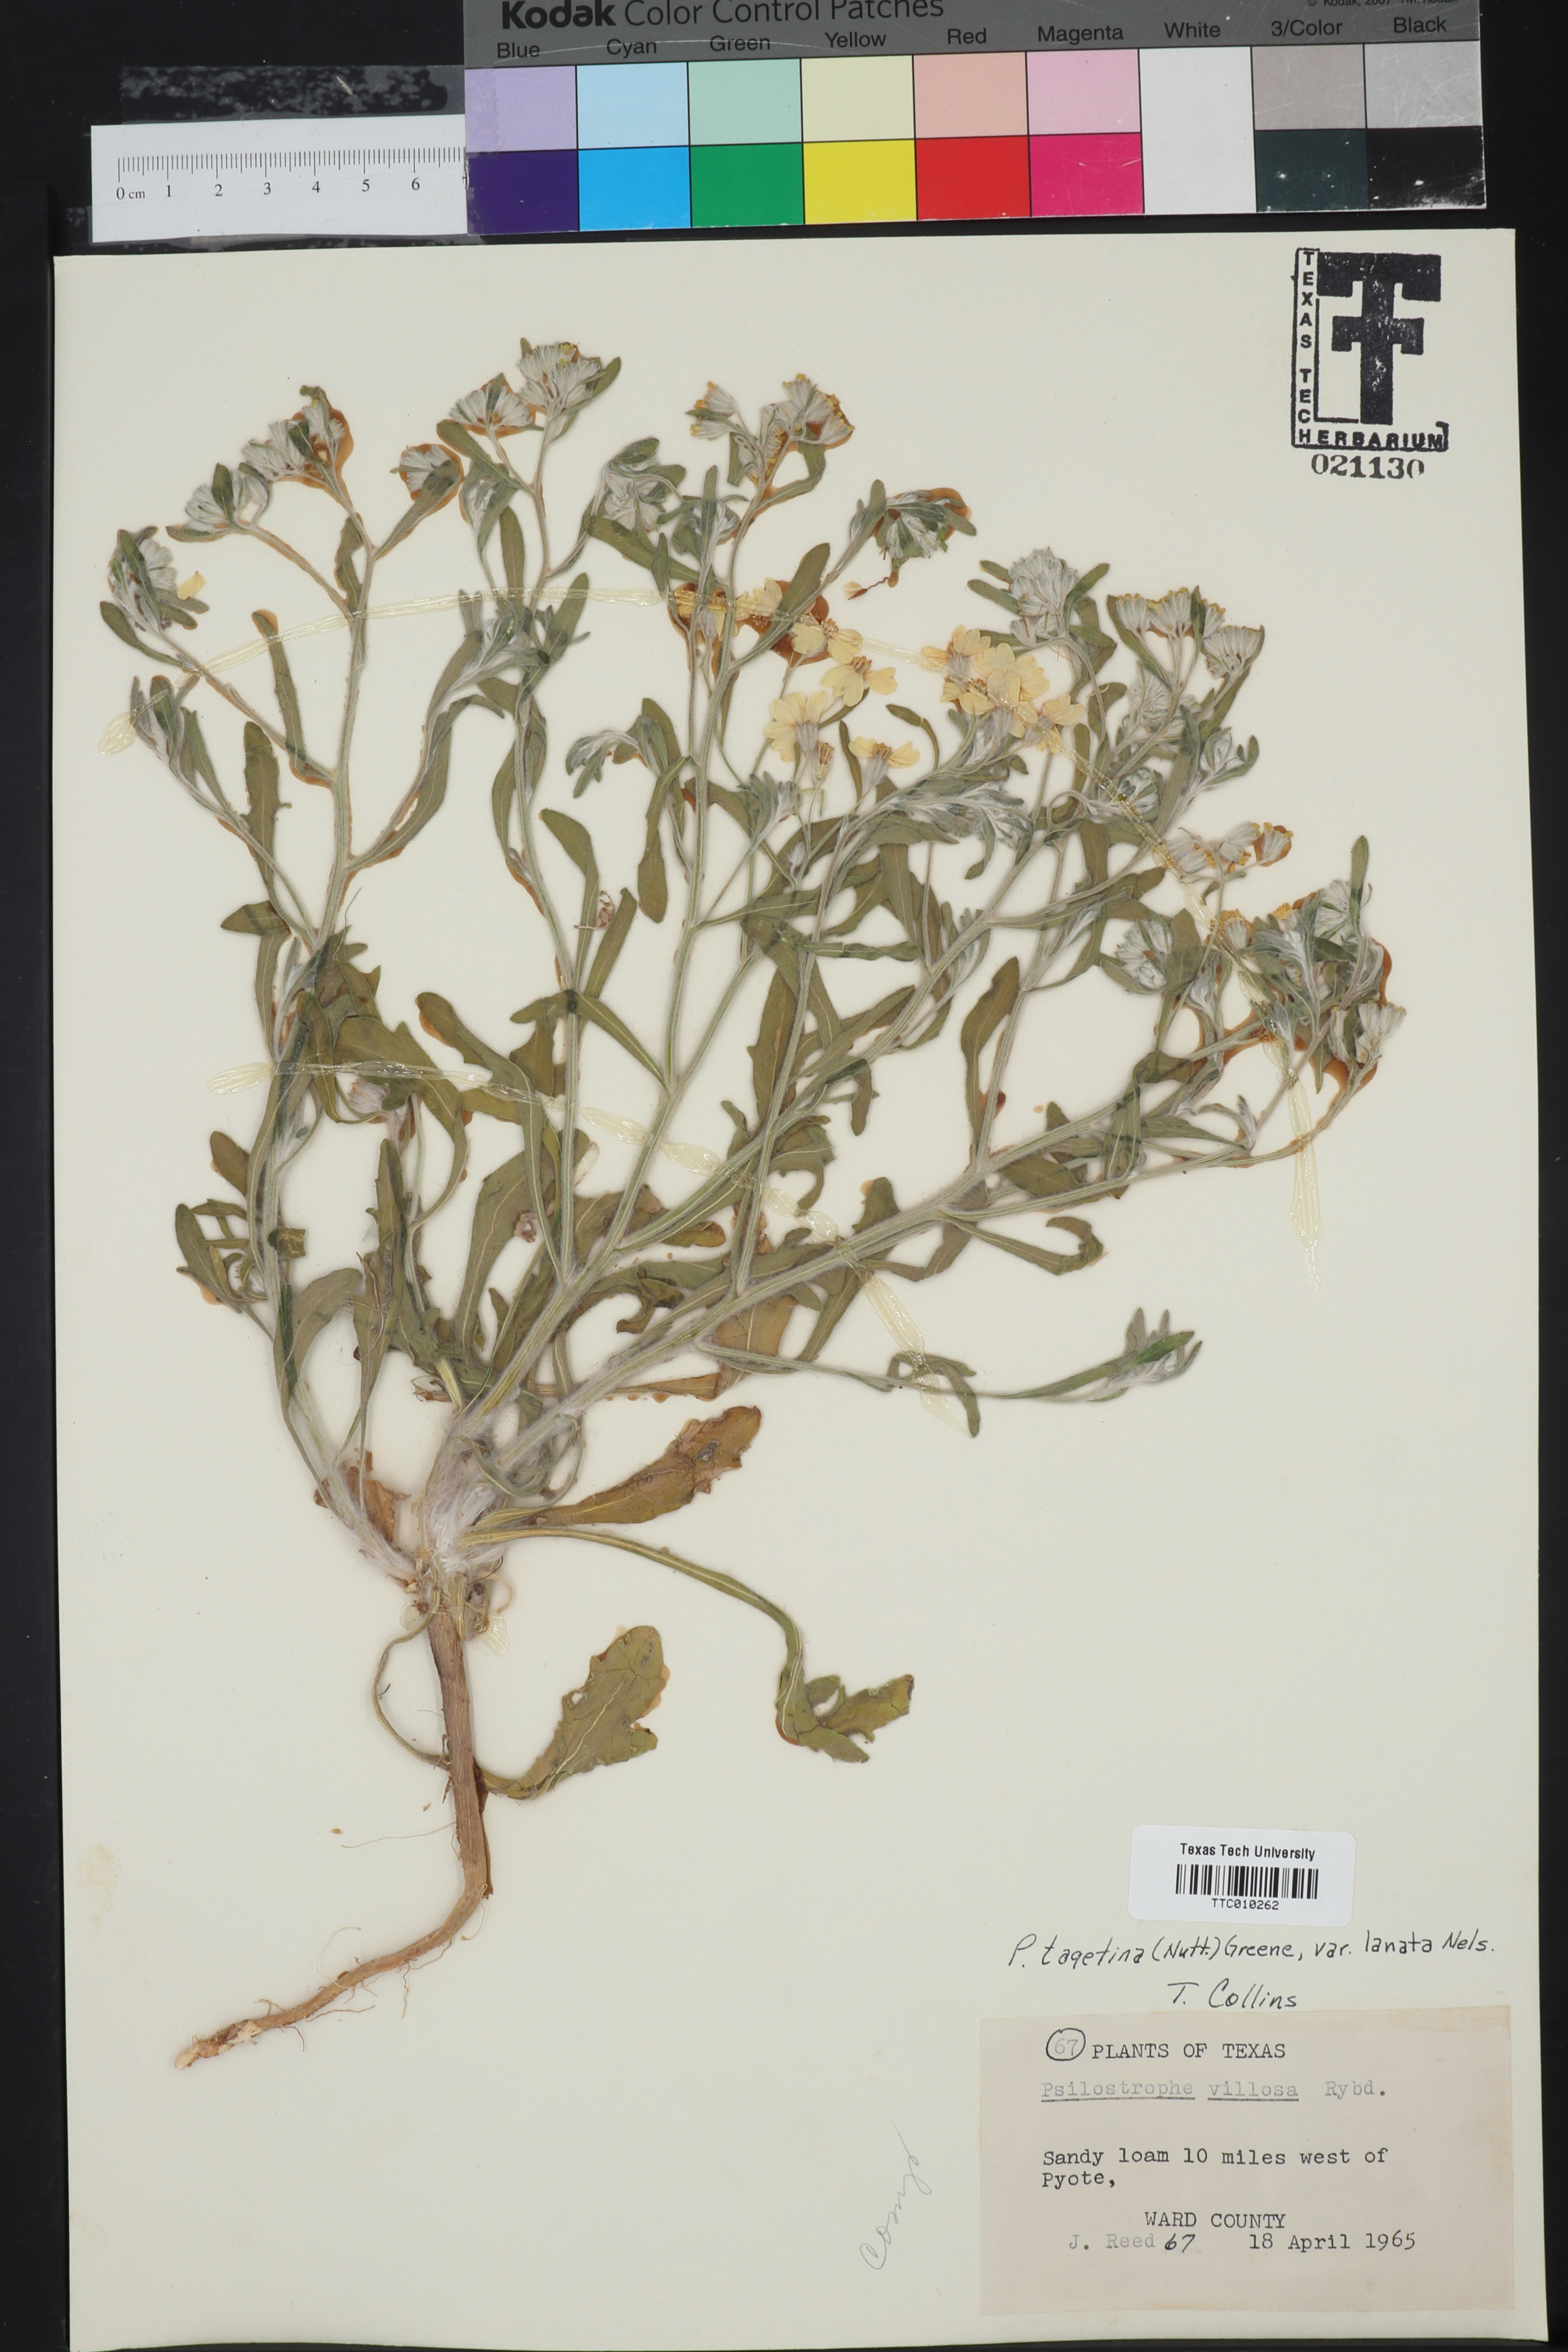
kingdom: Plantae
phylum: Tracheophyta
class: Magnoliopsida
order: Asterales
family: Asteraceae
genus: Psilostrophe
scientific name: Psilostrophe tagetina
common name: Marigold paper-flower
